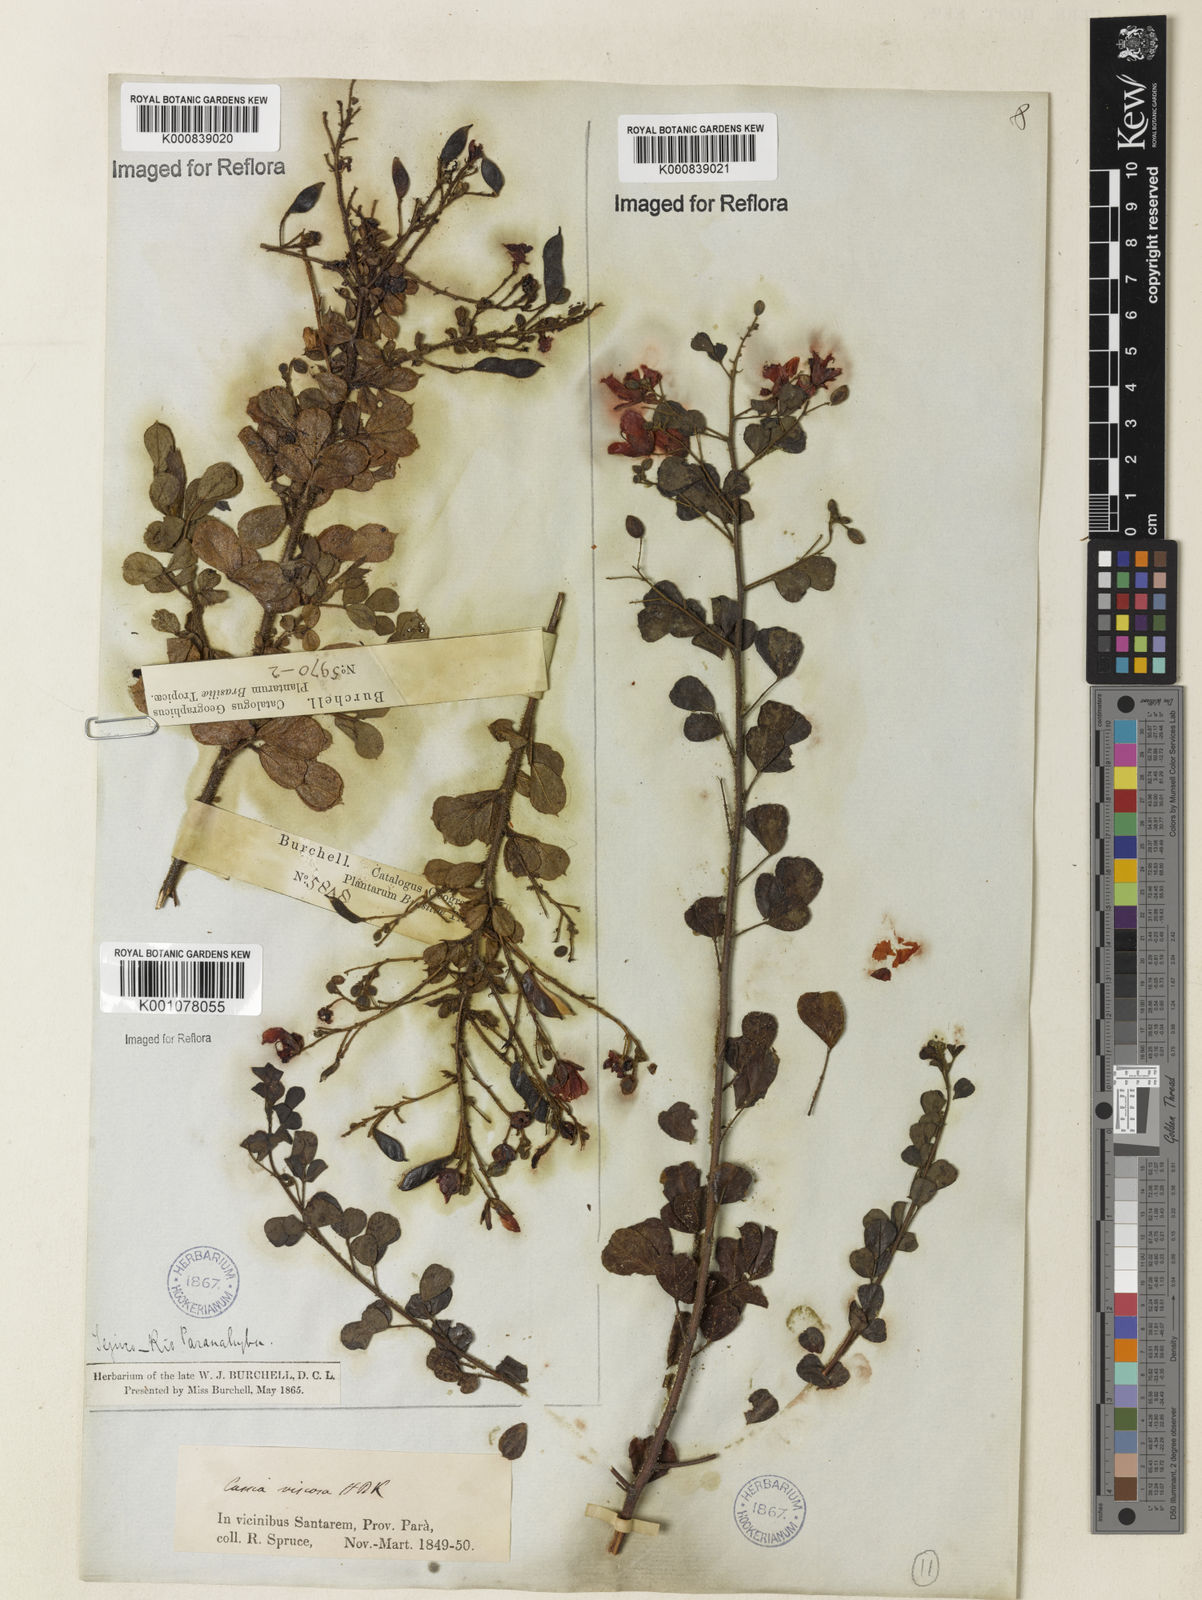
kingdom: Plantae
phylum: Tracheophyta
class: Magnoliopsida
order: Fabales
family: Fabaceae
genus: Chamaecrista
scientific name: Chamaecrista viscosa
